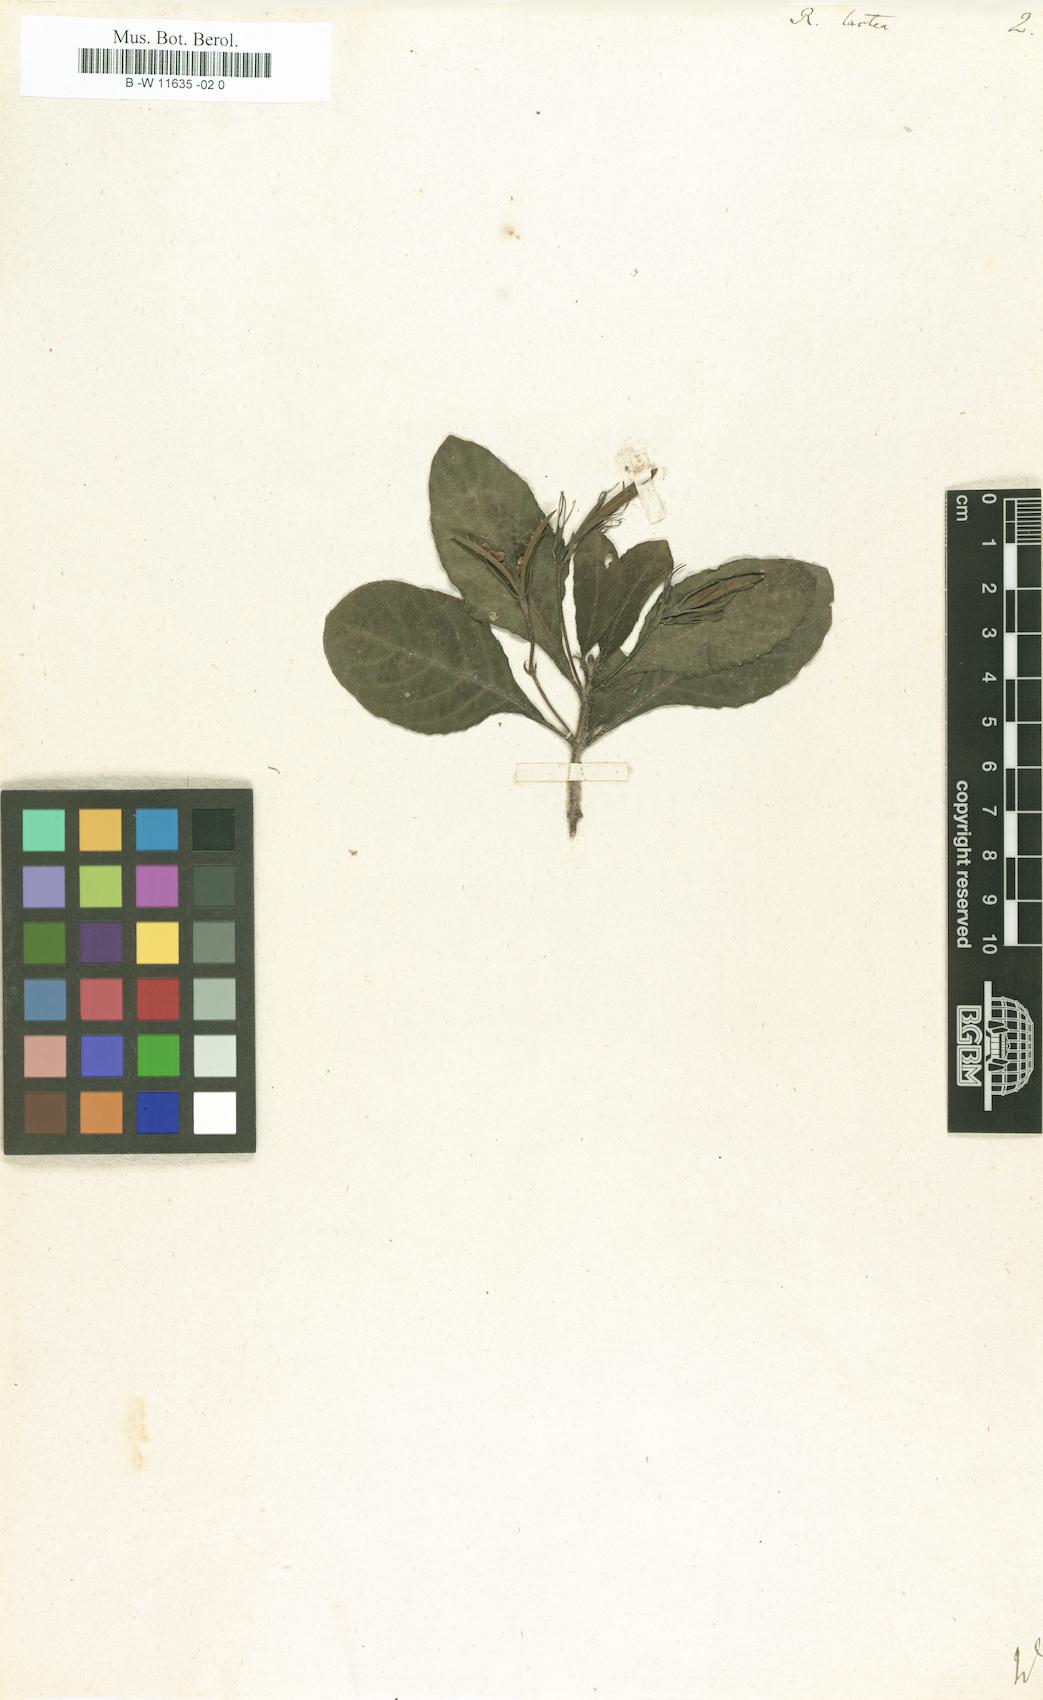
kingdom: Plantae
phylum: Tracheophyta
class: Magnoliopsida
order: Lamiales
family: Acanthaceae
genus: Ruellia
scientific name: Ruellia lactea
